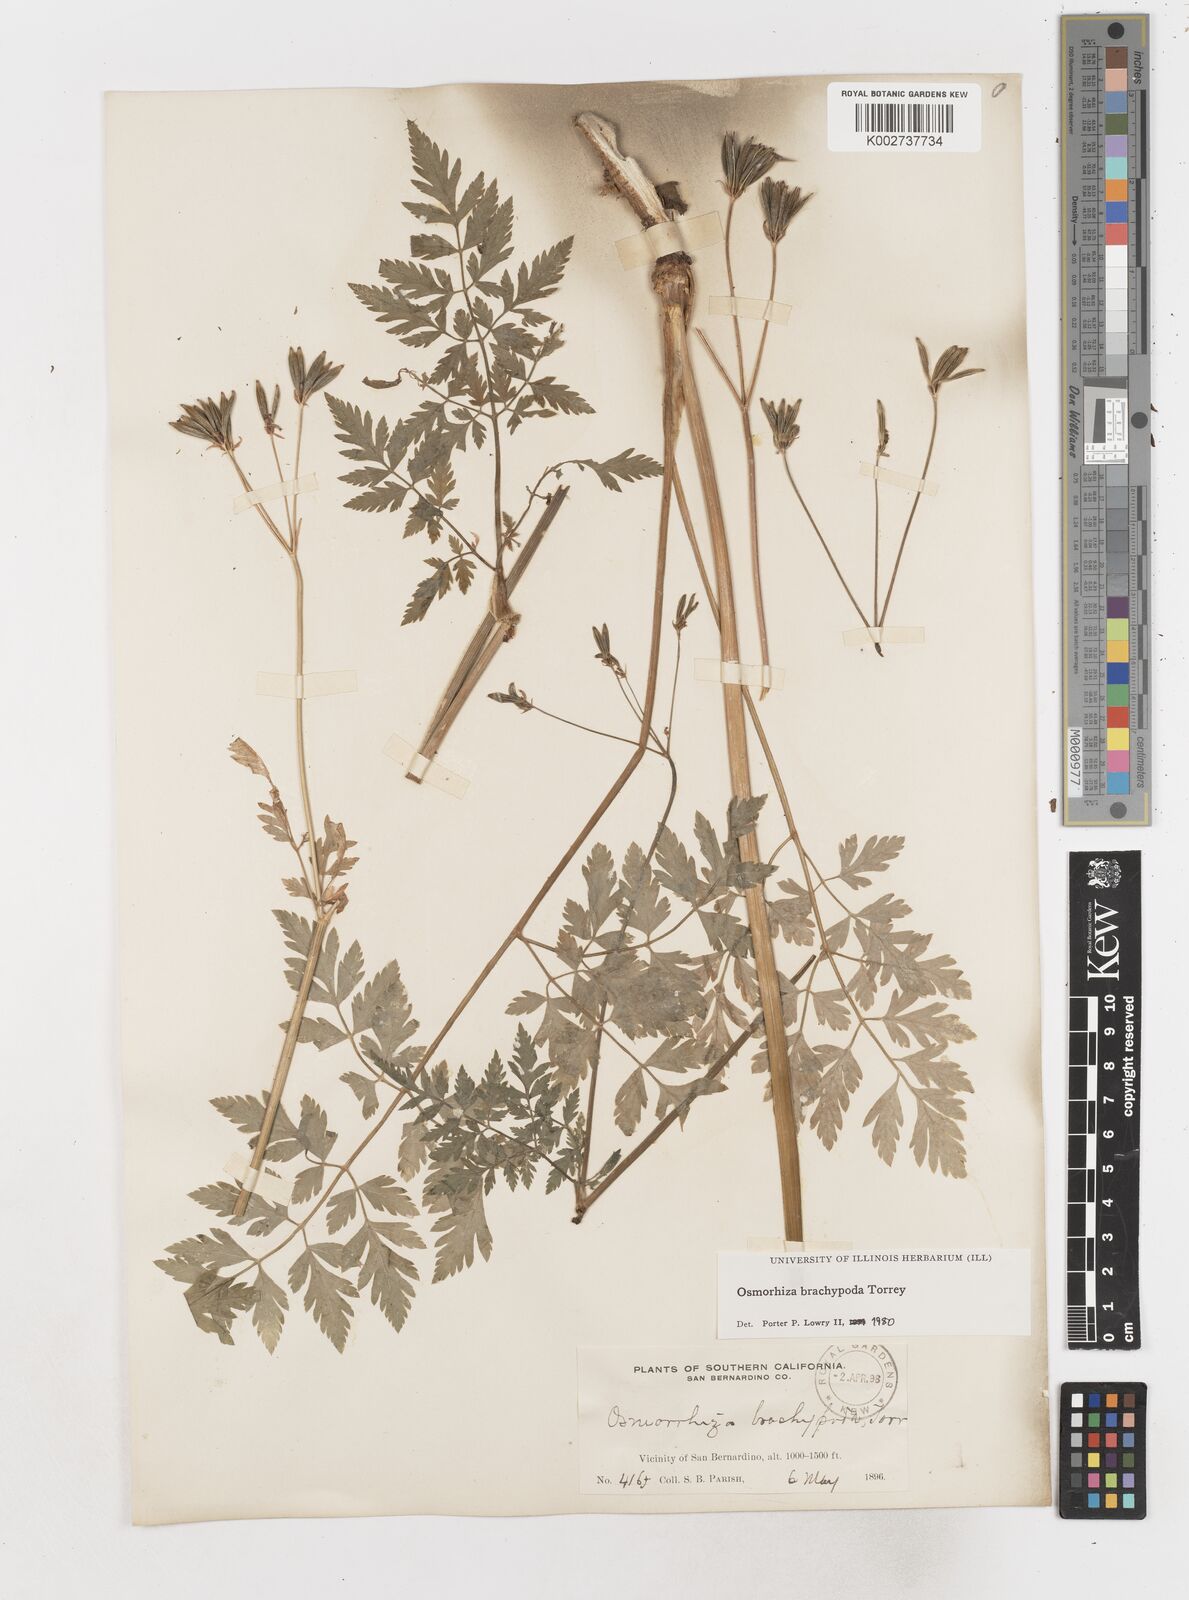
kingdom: Plantae
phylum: Tracheophyta
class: Magnoliopsida
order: Apiales
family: Apiaceae
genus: Osmorhiza
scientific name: Osmorhiza brachypoda
